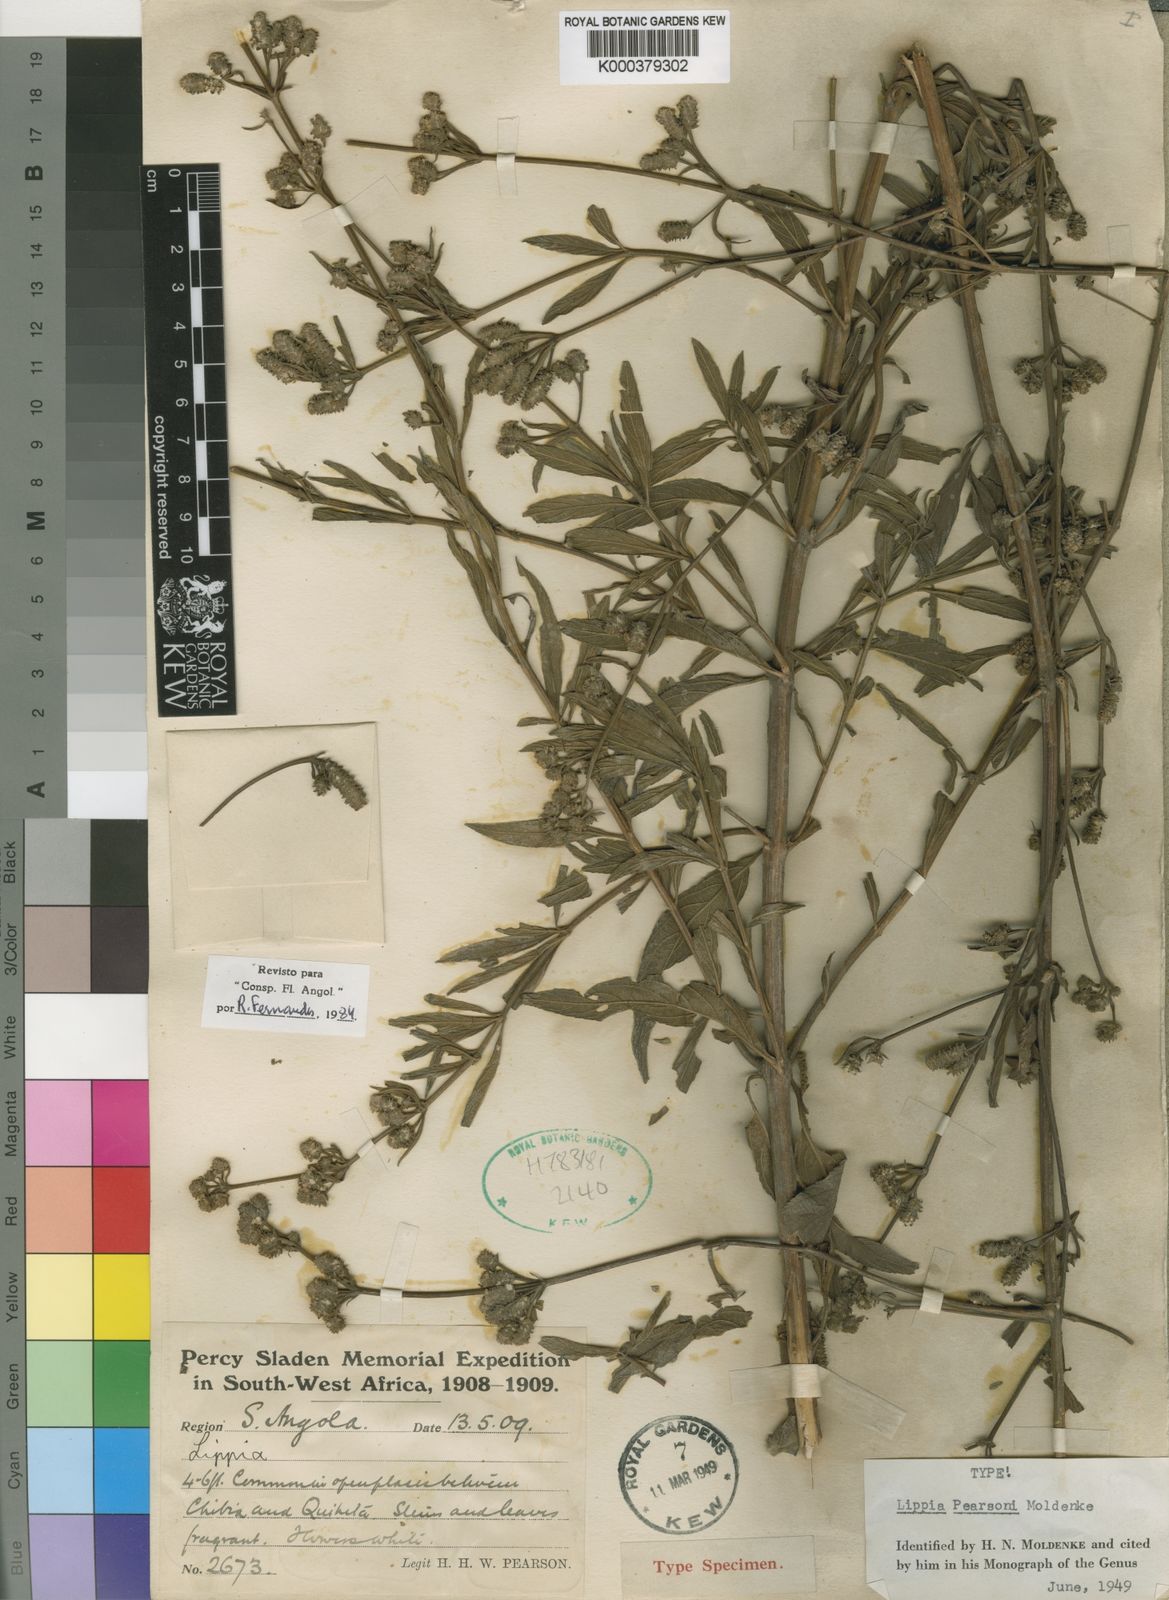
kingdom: Plantae
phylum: Tracheophyta
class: Magnoliopsida
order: Lamiales
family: Verbenaceae
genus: Lippia
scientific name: Lippia pearsonii
